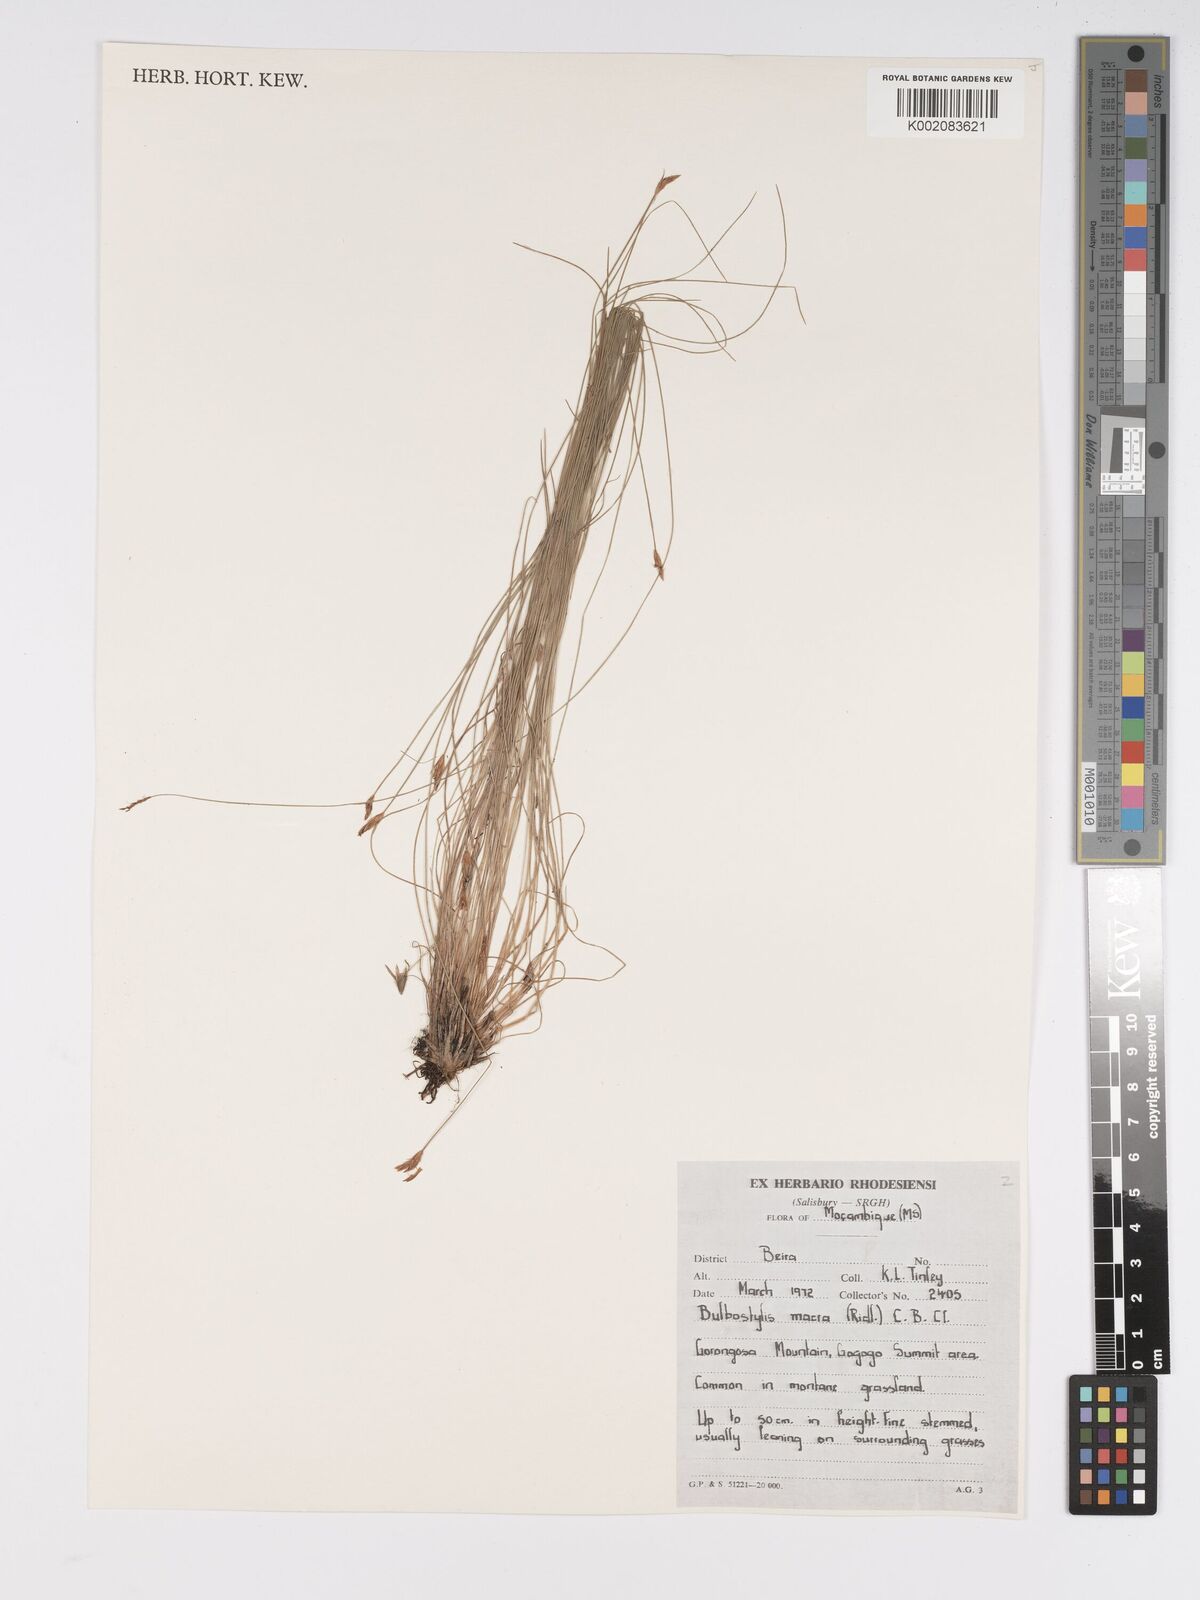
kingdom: Plantae
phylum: Tracheophyta
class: Liliopsida
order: Poales
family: Cyperaceae
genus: Bulbostylis
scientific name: Bulbostylis macra
